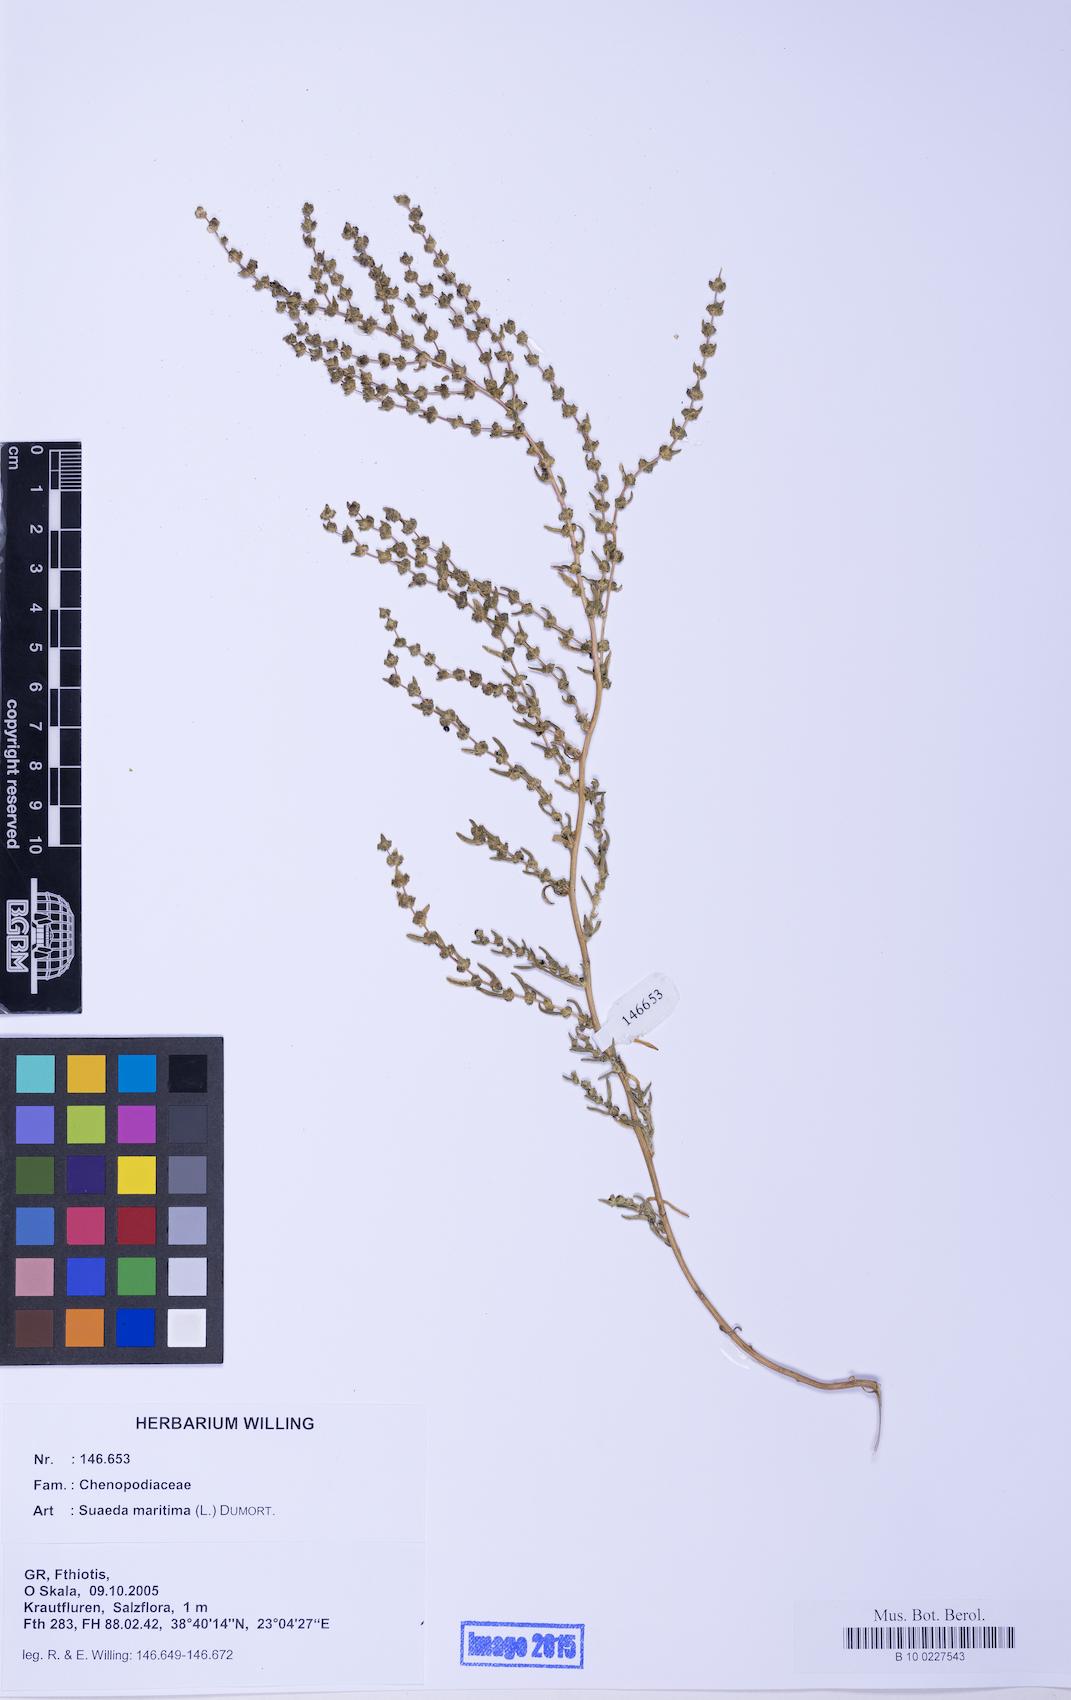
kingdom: Plantae
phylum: Tracheophyta
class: Magnoliopsida
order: Caryophyllales
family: Amaranthaceae
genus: Suaeda
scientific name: Suaeda maritima
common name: Annual sea-blite
